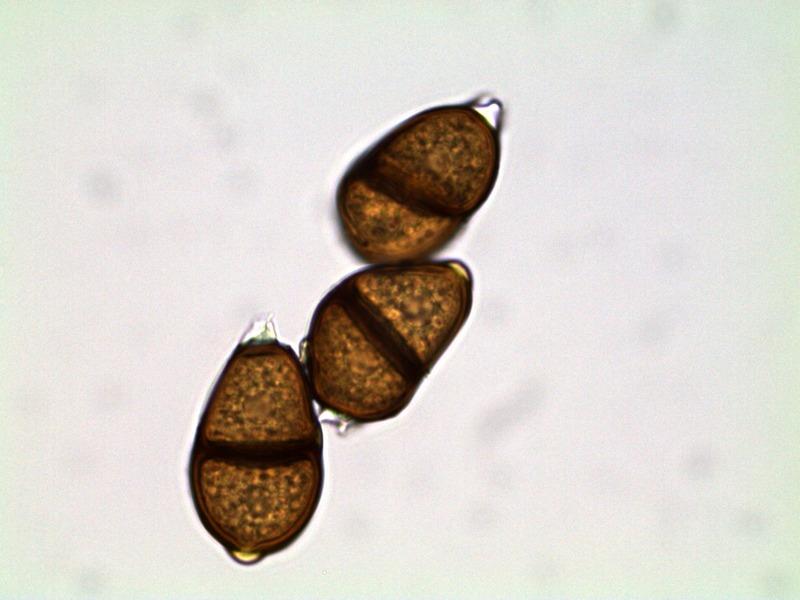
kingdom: Fungi
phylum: Basidiomycota
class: Pucciniomycetes
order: Pucciniales
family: Pucciniaceae
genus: Puccinia
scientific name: Puccinia
